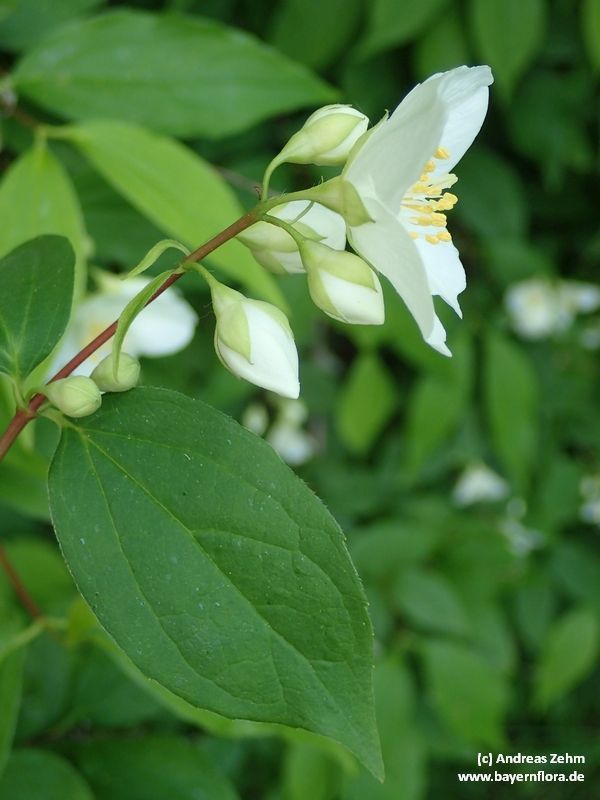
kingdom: Plantae
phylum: Tracheophyta
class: Magnoliopsida
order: Cornales
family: Hydrangeaceae
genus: Philadelphus
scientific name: Philadelphus coronarius
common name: Mock orange
